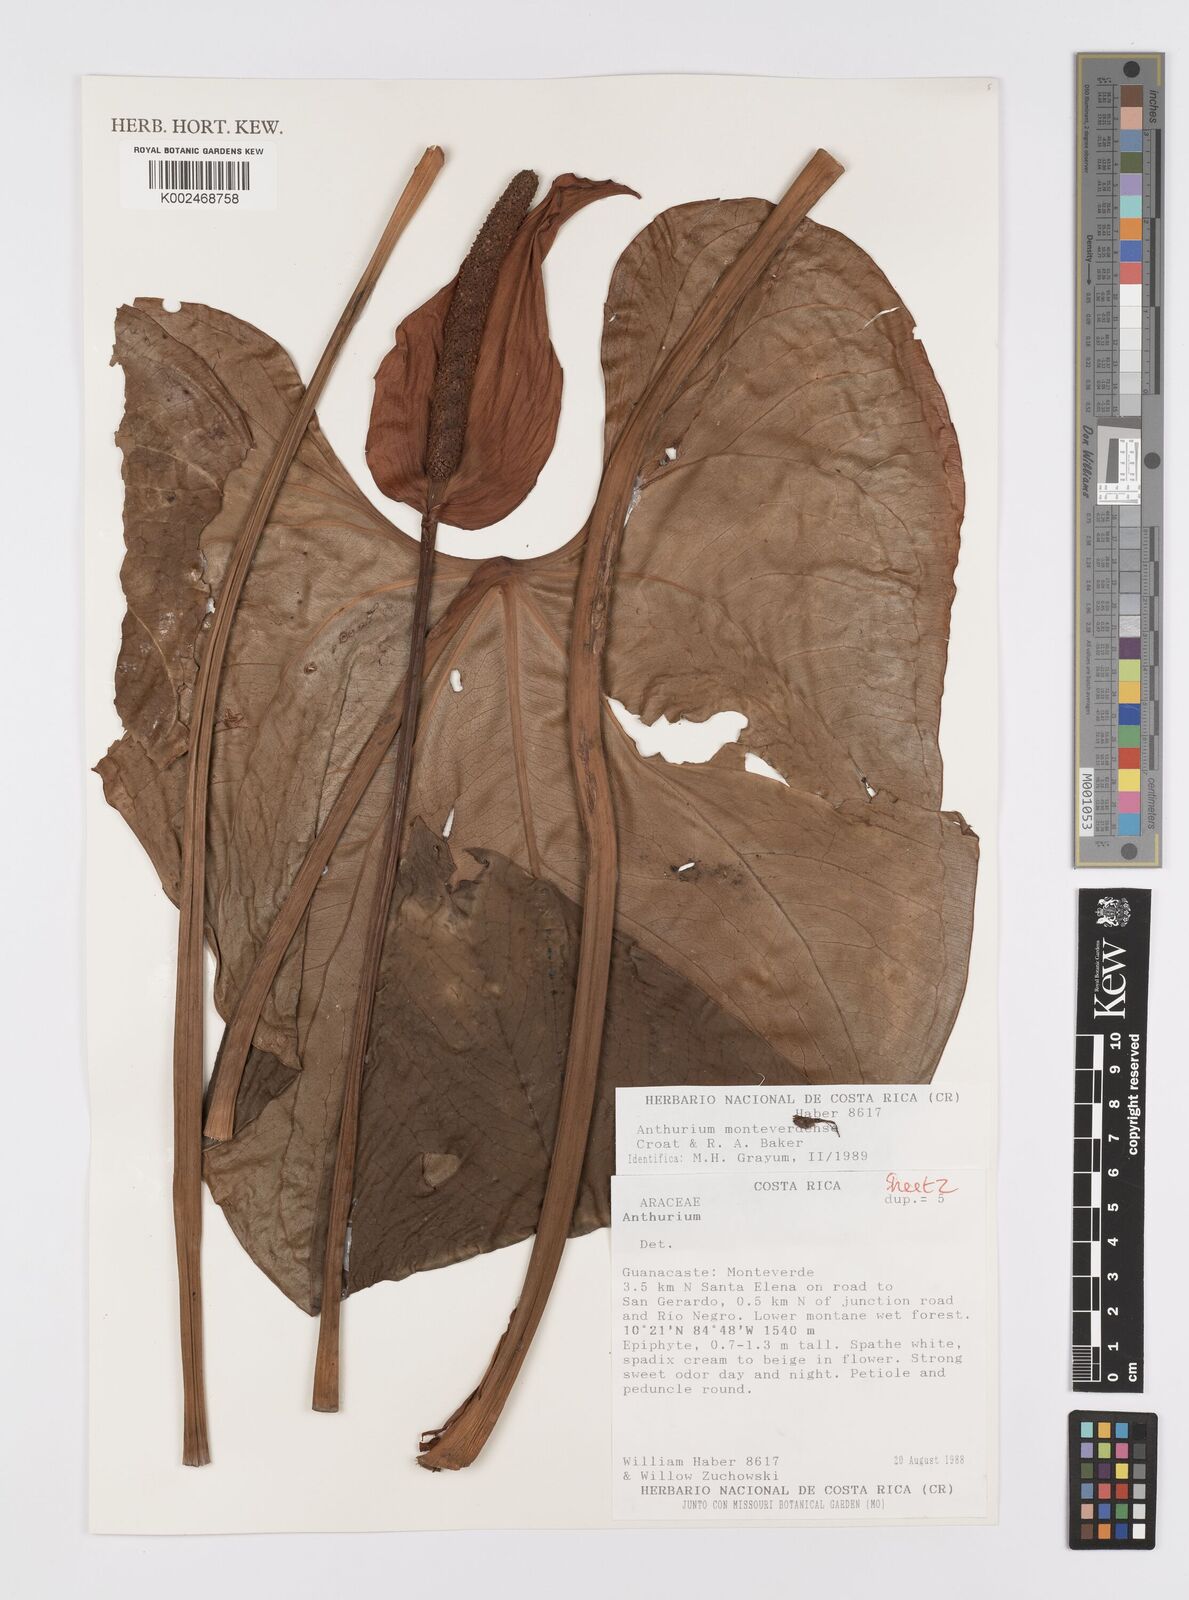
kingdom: Plantae
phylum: Tracheophyta
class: Liliopsida
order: Alismatales
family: Araceae
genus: Anthurium
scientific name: Anthurium monteverdense
